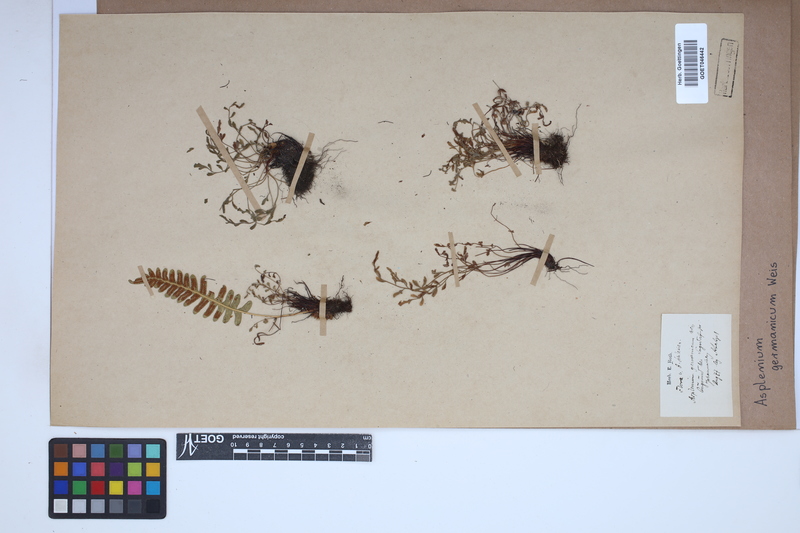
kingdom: Plantae
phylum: Tracheophyta
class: Polypodiopsida
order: Polypodiales
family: Aspleniaceae
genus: Asplenium
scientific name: Asplenium
